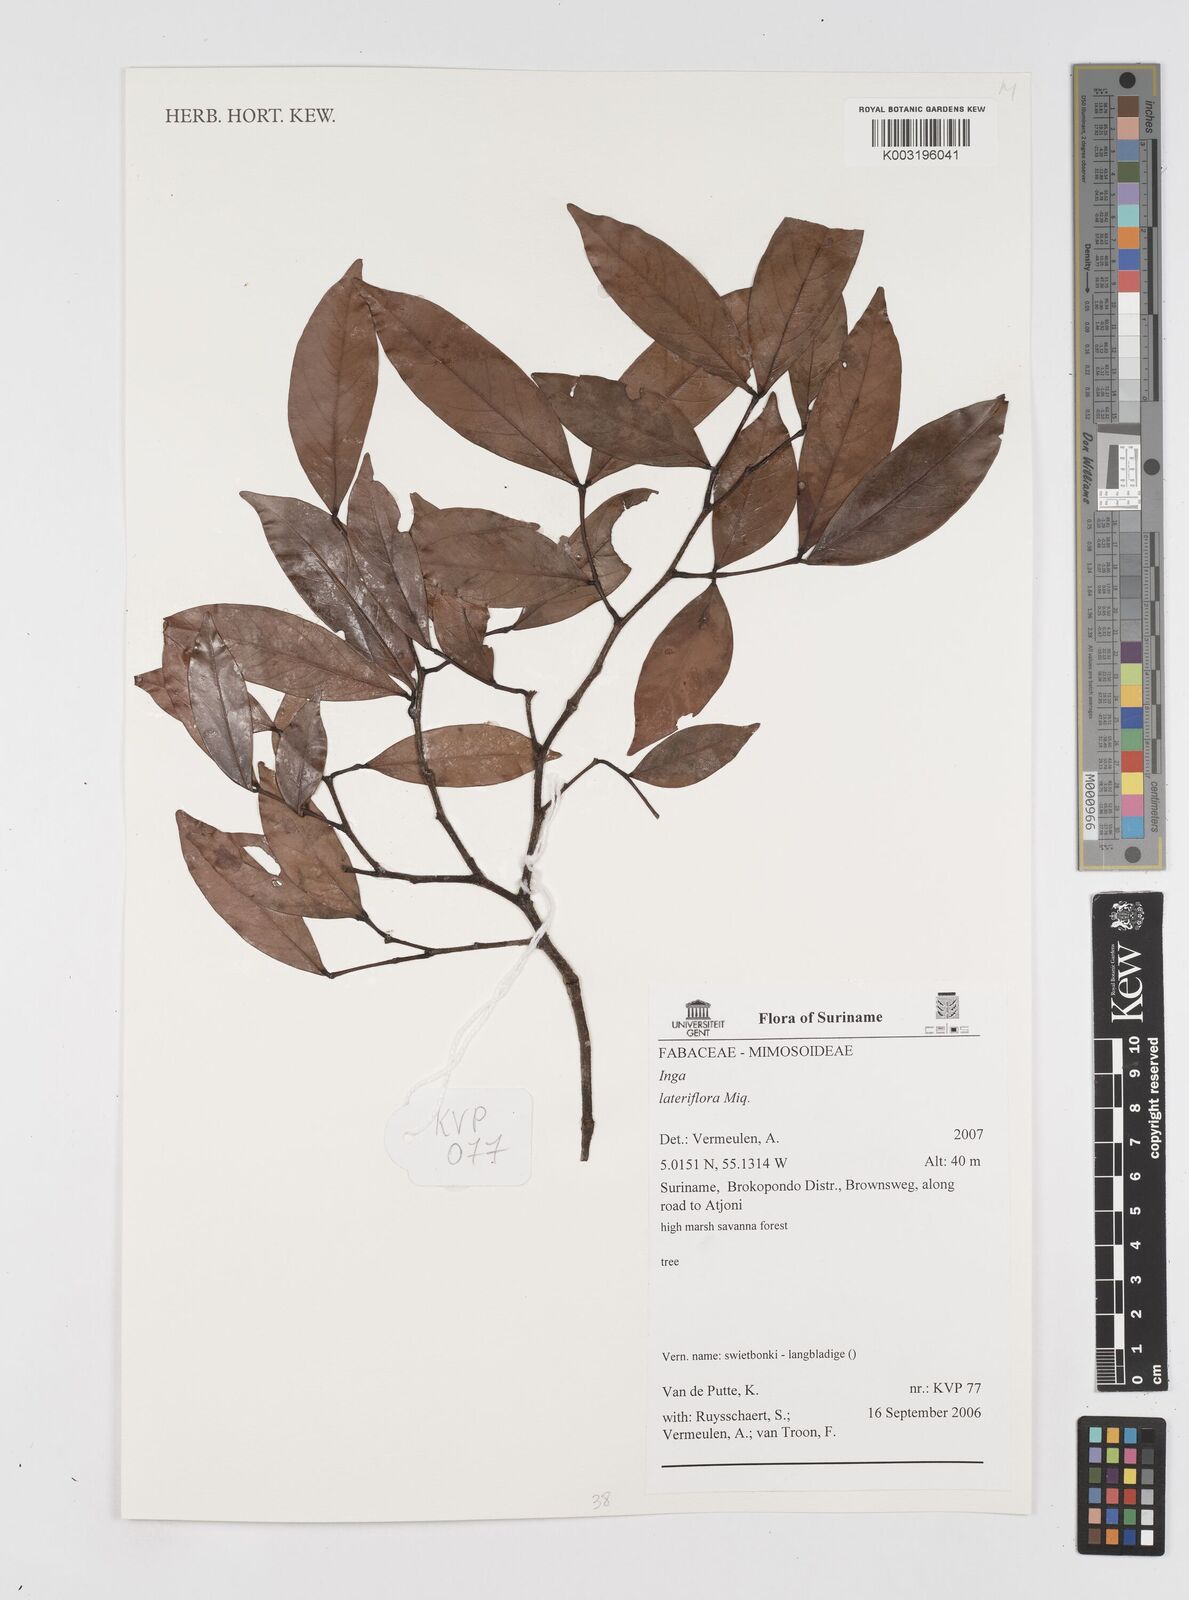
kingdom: Plantae
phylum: Tracheophyta
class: Magnoliopsida
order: Fabales
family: Fabaceae
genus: Inga
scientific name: Inga lateriflora
